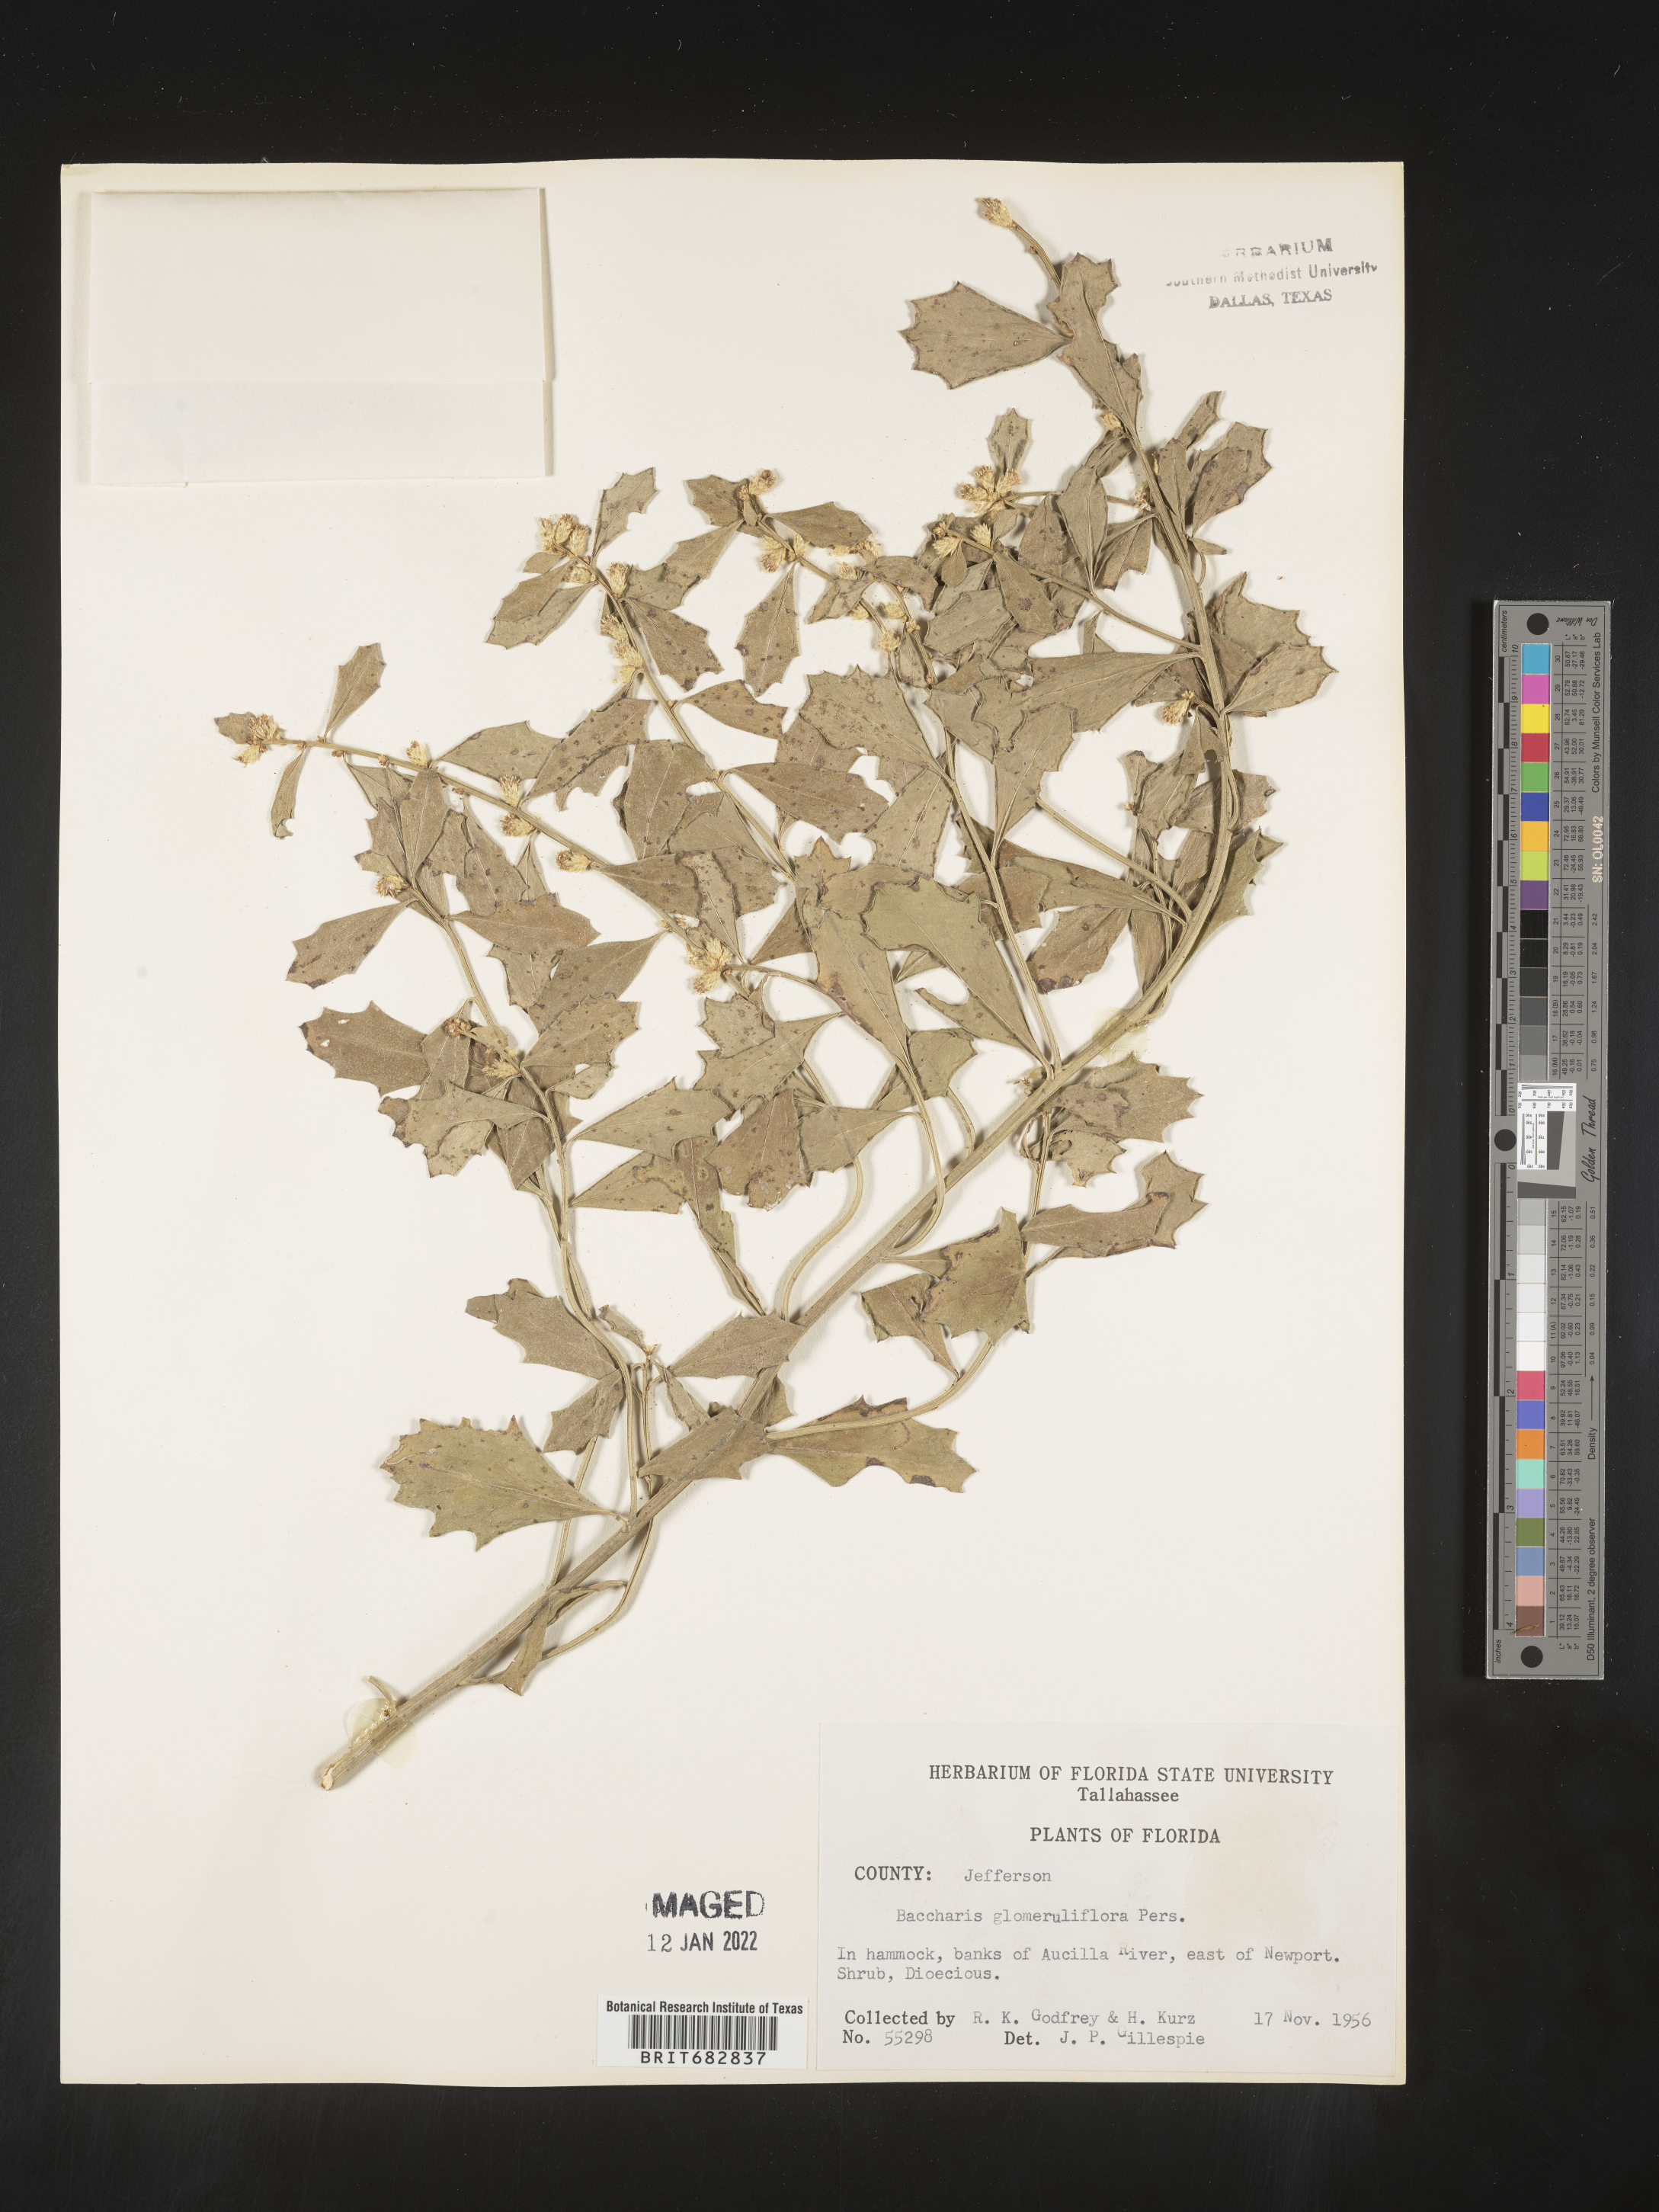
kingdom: Plantae
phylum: Tracheophyta
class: Magnoliopsida
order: Asterales
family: Asteraceae
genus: Baccharis
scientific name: Baccharis glomeruliflora
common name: Silverling groundsel bush
